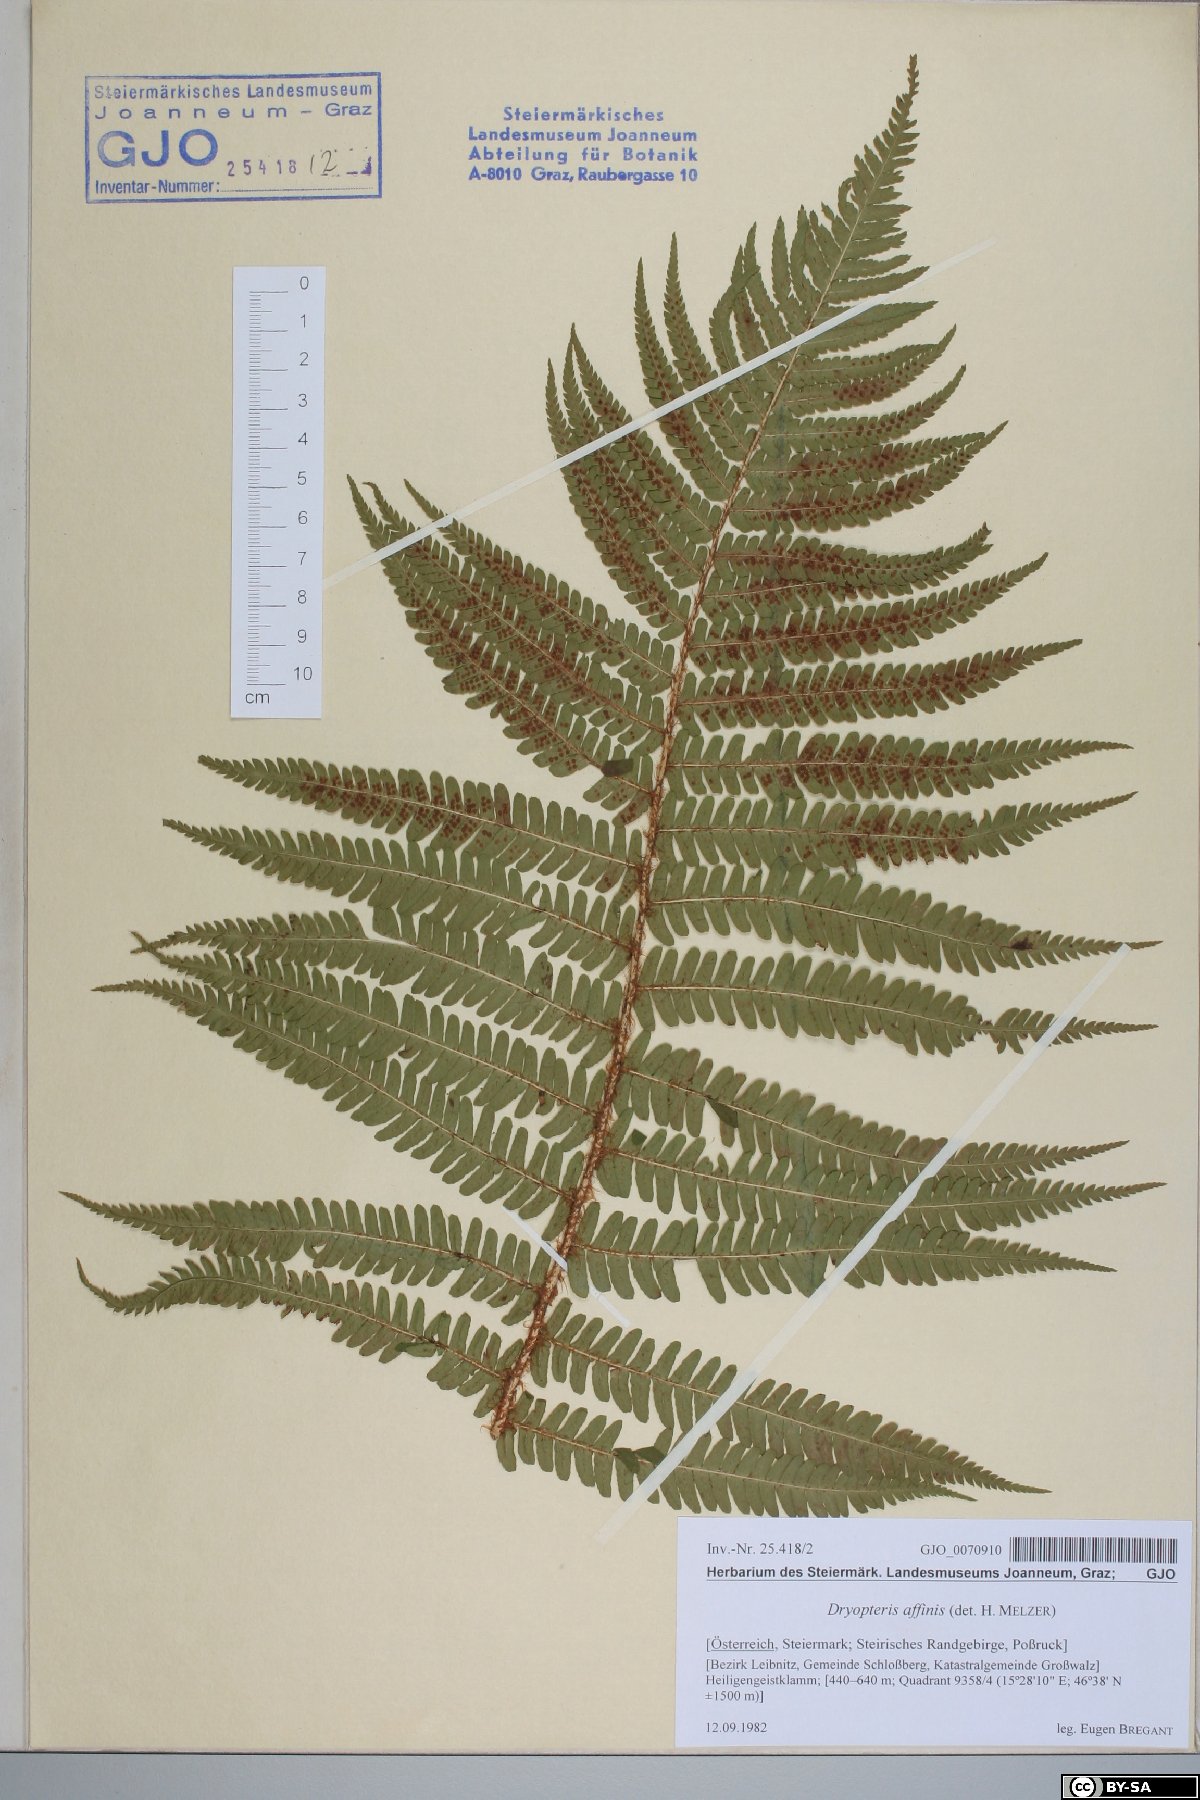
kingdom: Plantae
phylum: Tracheophyta
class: Polypodiopsida
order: Polypodiales
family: Dryopteridaceae
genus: Dryopteris
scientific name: Dryopteris affinis
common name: Scaly male fern
